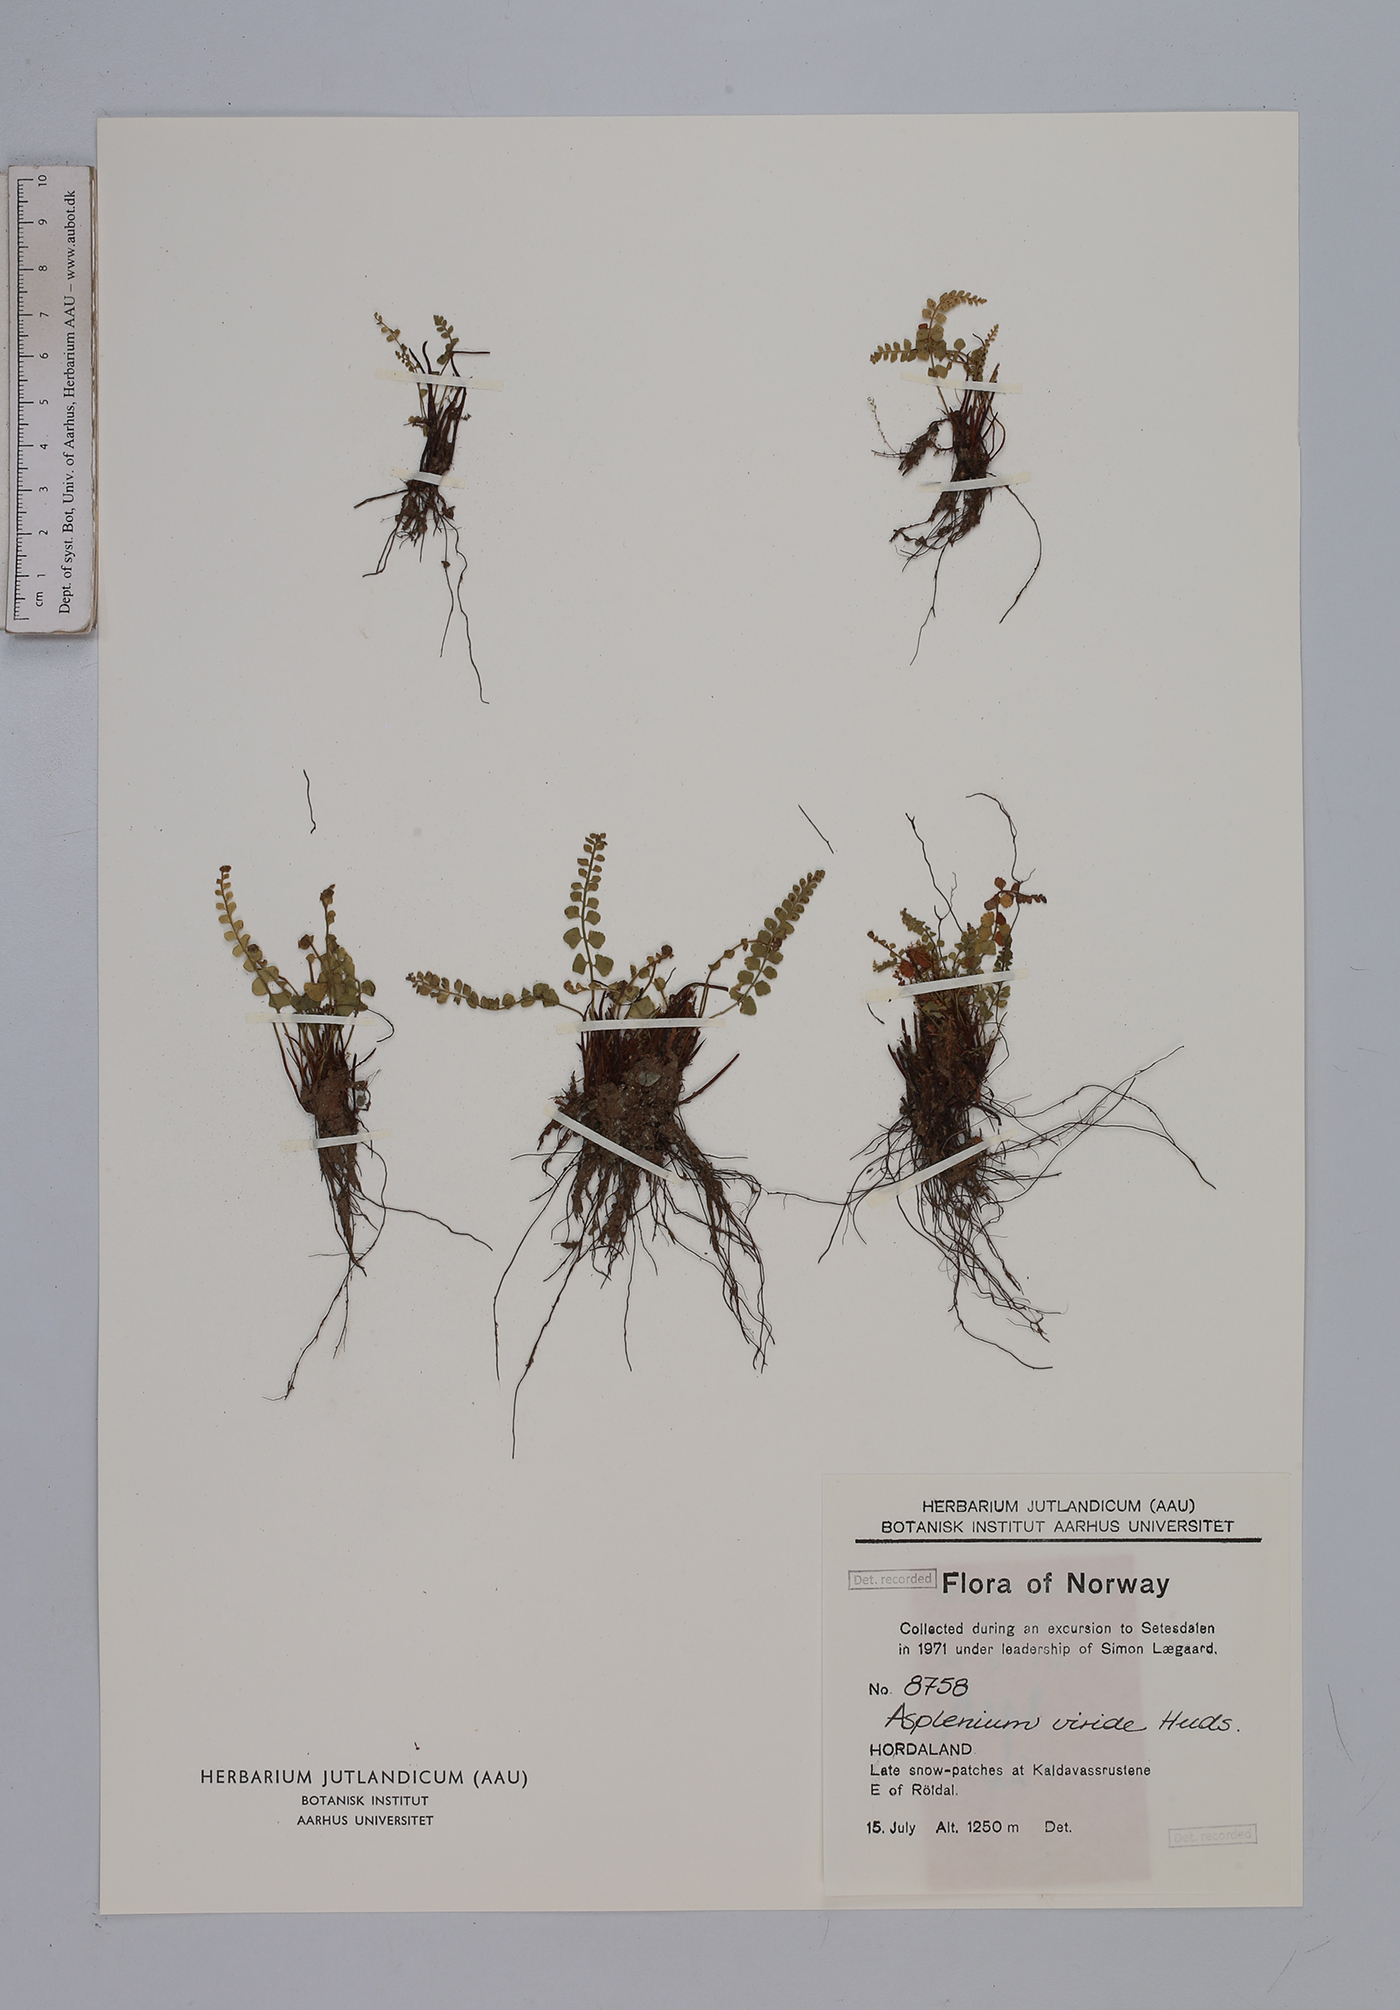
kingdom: Plantae
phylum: Tracheophyta
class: Polypodiopsida
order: Polypodiales
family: Aspleniaceae
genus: Asplenium
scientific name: Asplenium viride
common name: Green spleenwort
